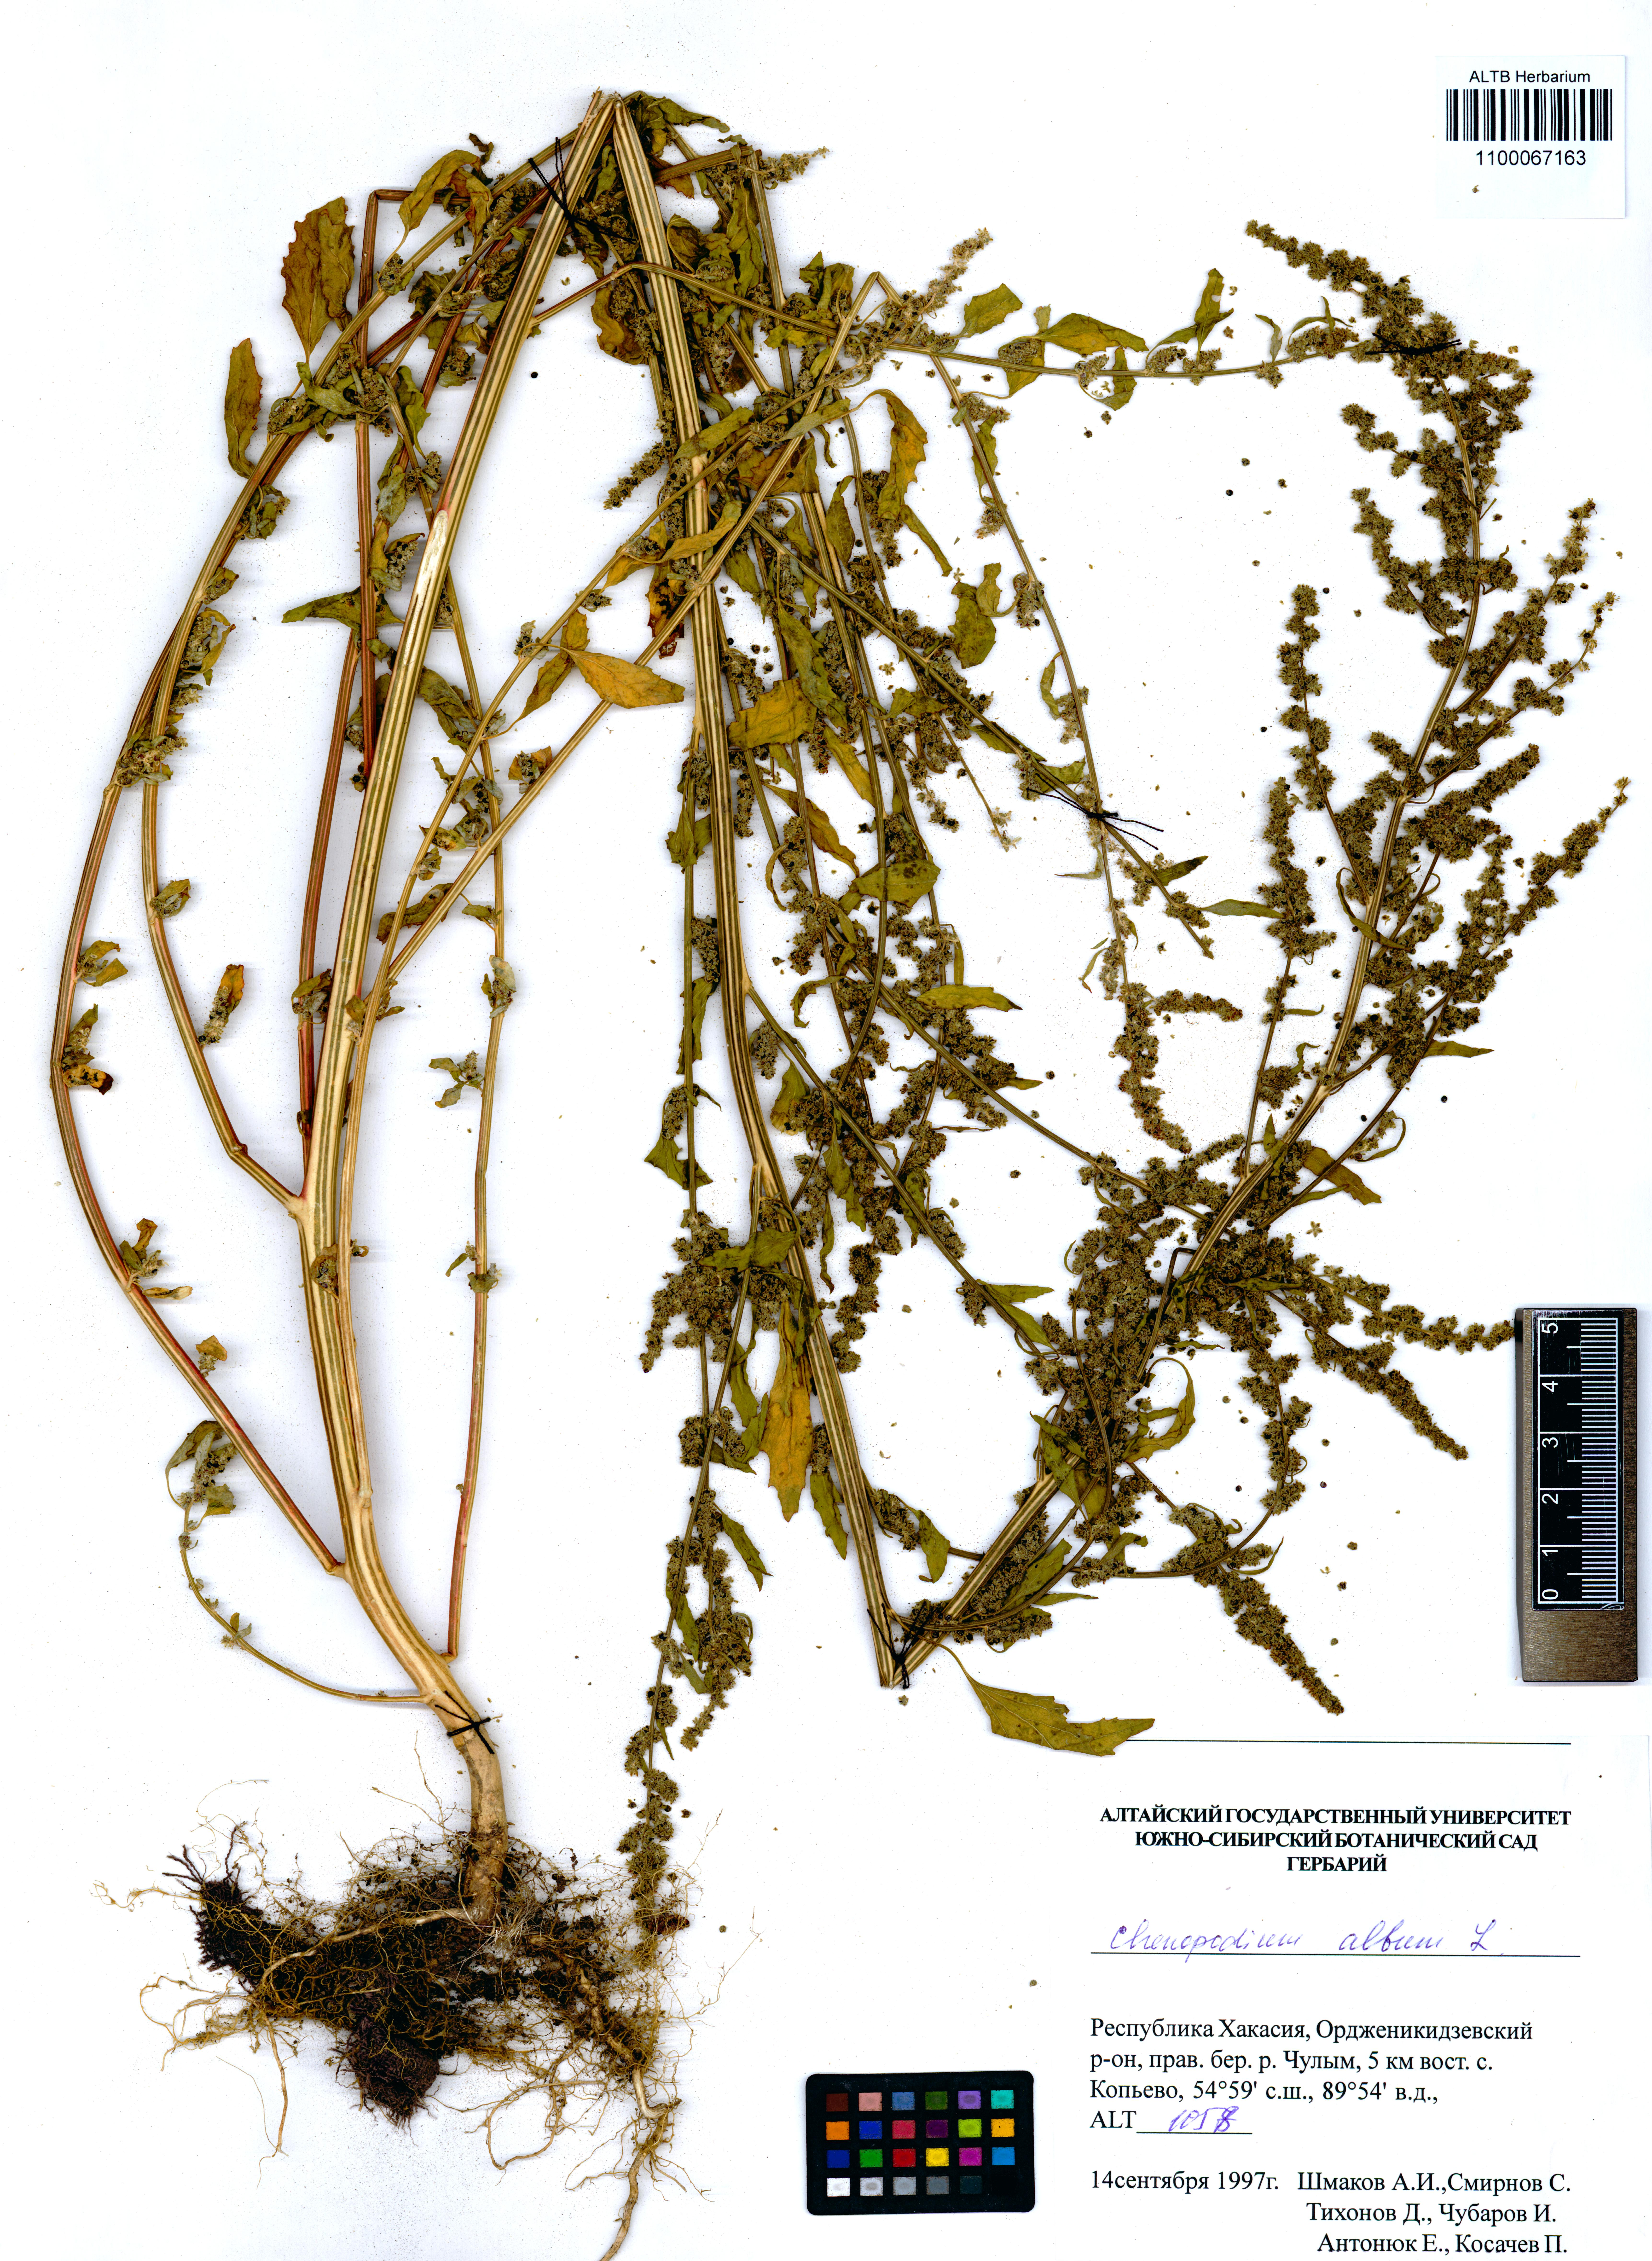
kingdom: Plantae
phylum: Tracheophyta
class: Magnoliopsida
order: Caryophyllales
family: Amaranthaceae
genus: Chenopodium
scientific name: Chenopodium album
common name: Fat-hen
